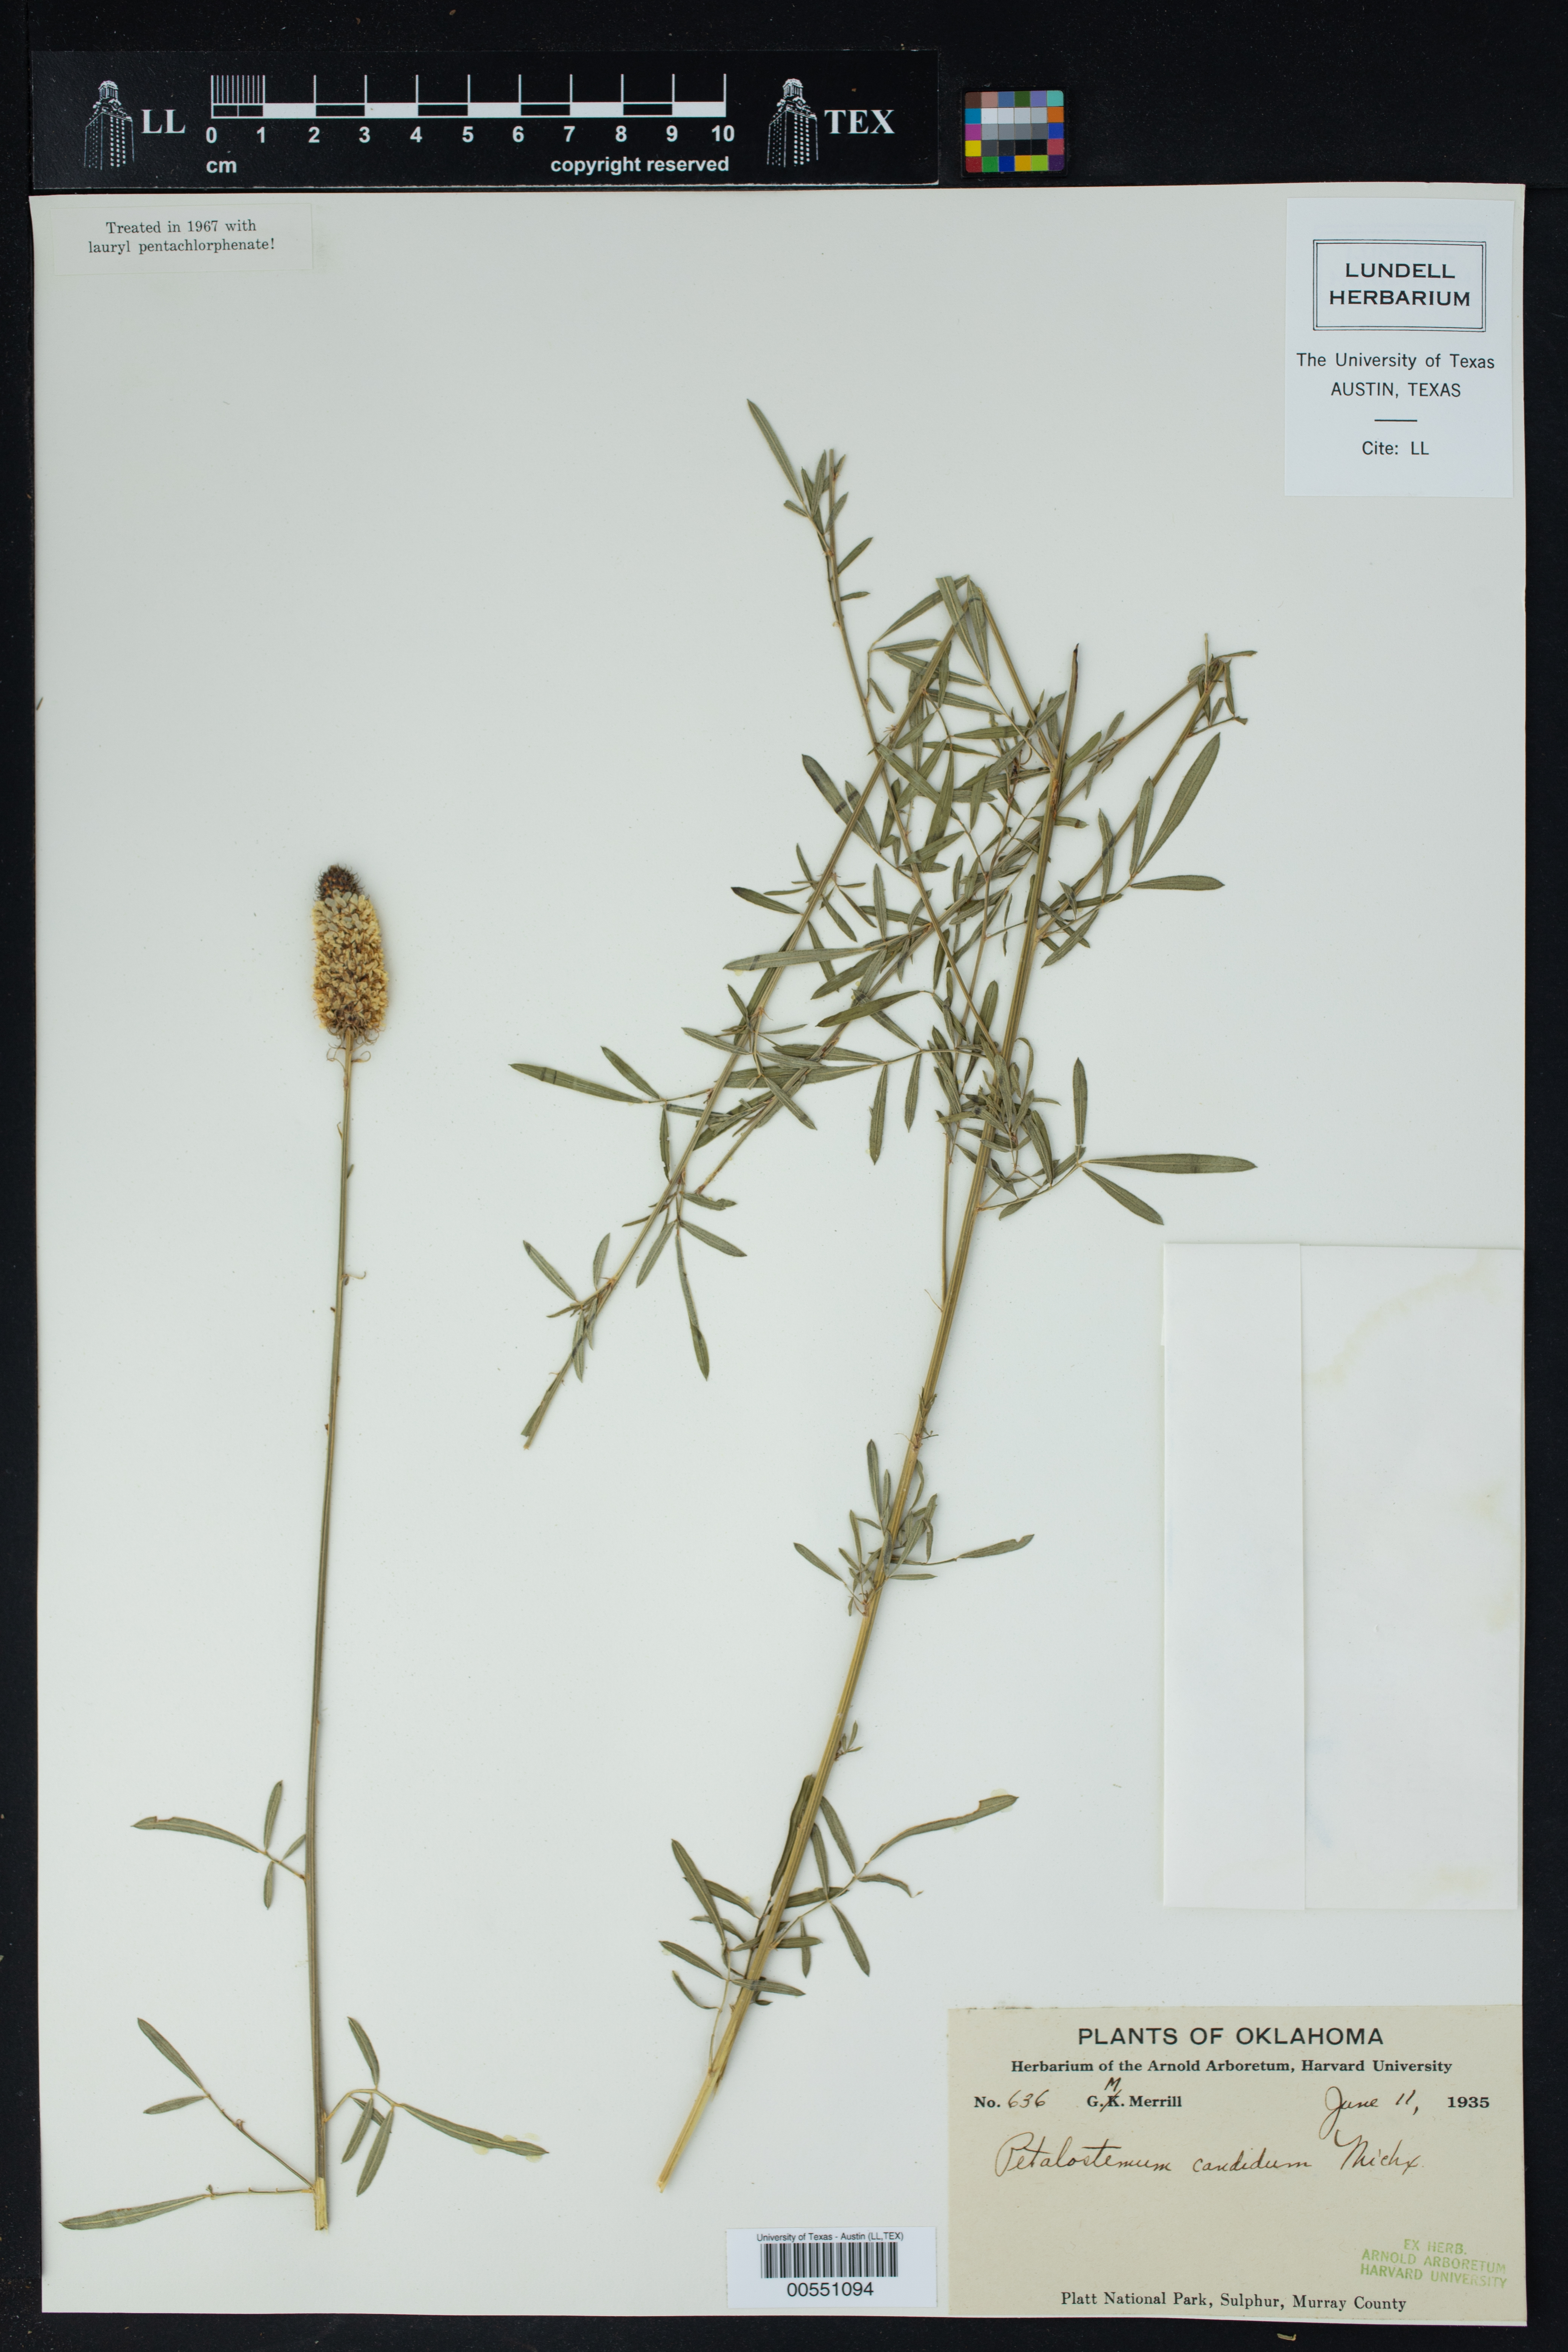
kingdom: Plantae
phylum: Tracheophyta
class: Magnoliopsida
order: Fabales
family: Fabaceae
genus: Dalea
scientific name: Dalea candida
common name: White prairie-clover
